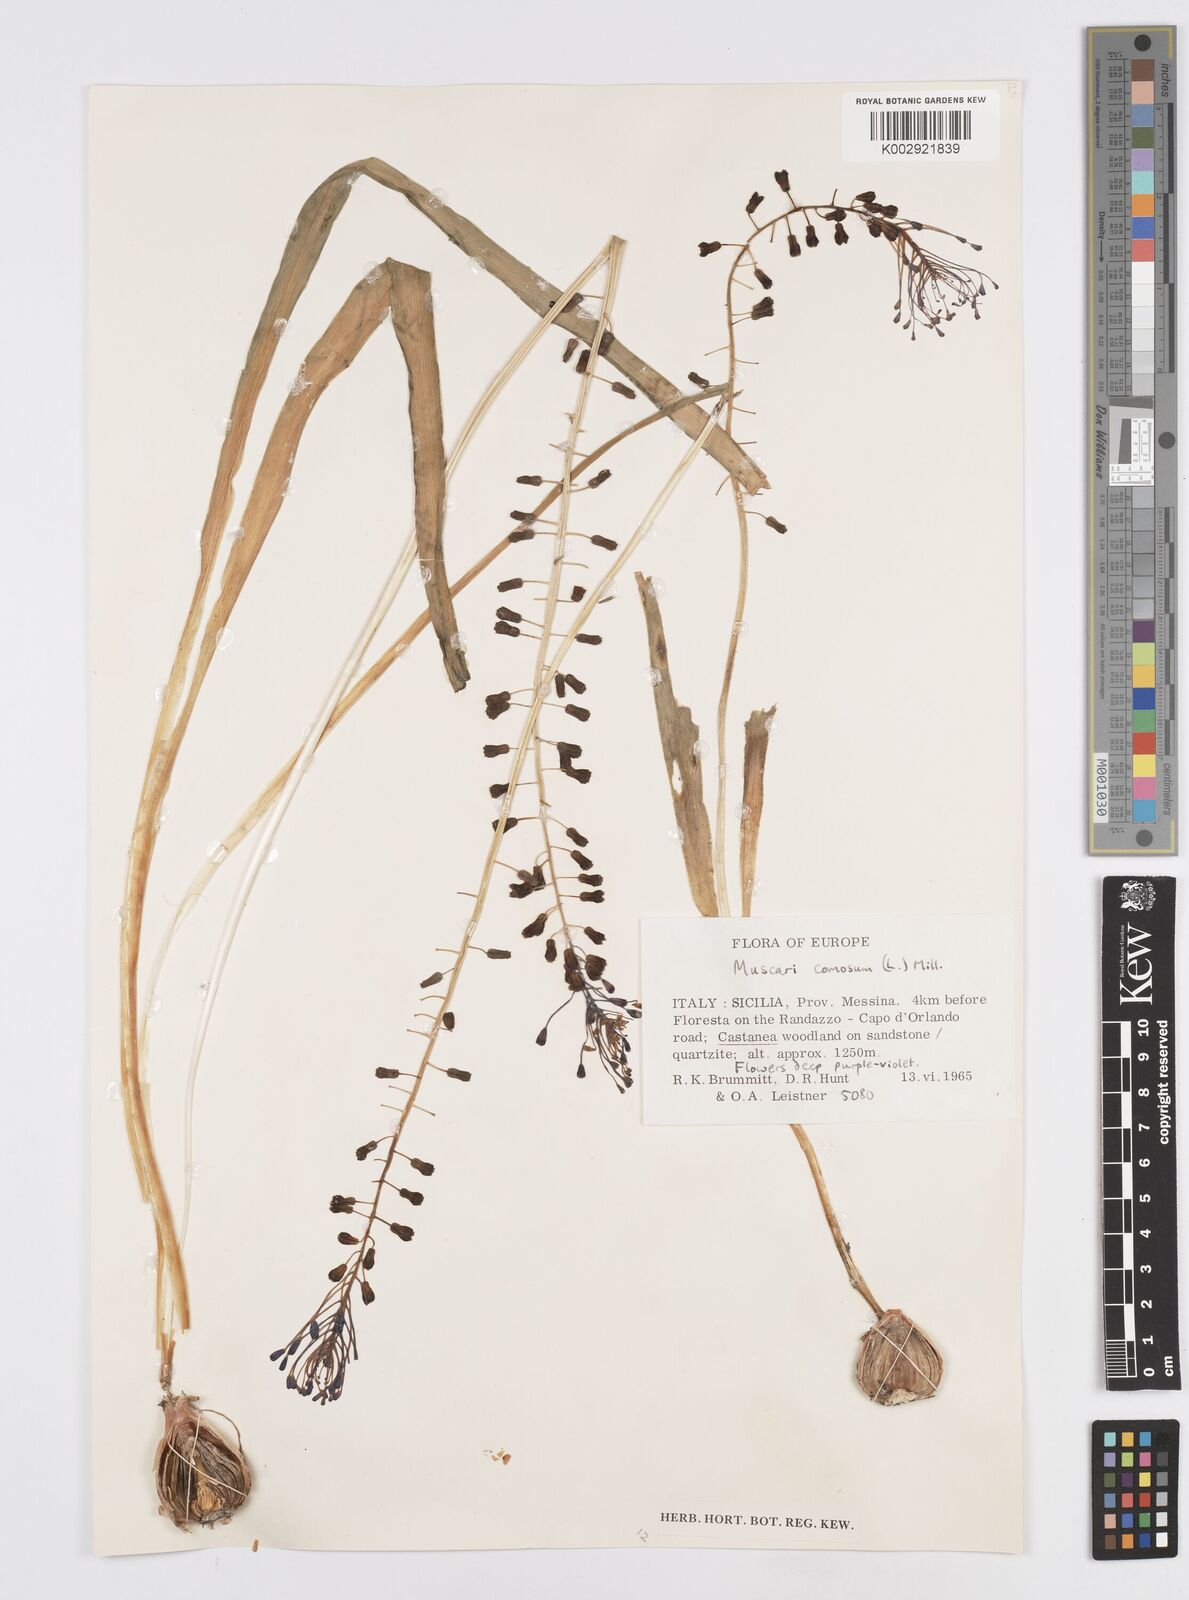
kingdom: Plantae
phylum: Tracheophyta
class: Liliopsida
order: Asparagales
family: Asparagaceae
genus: Muscari
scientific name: Muscari comosum
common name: Tassel hyacinth
